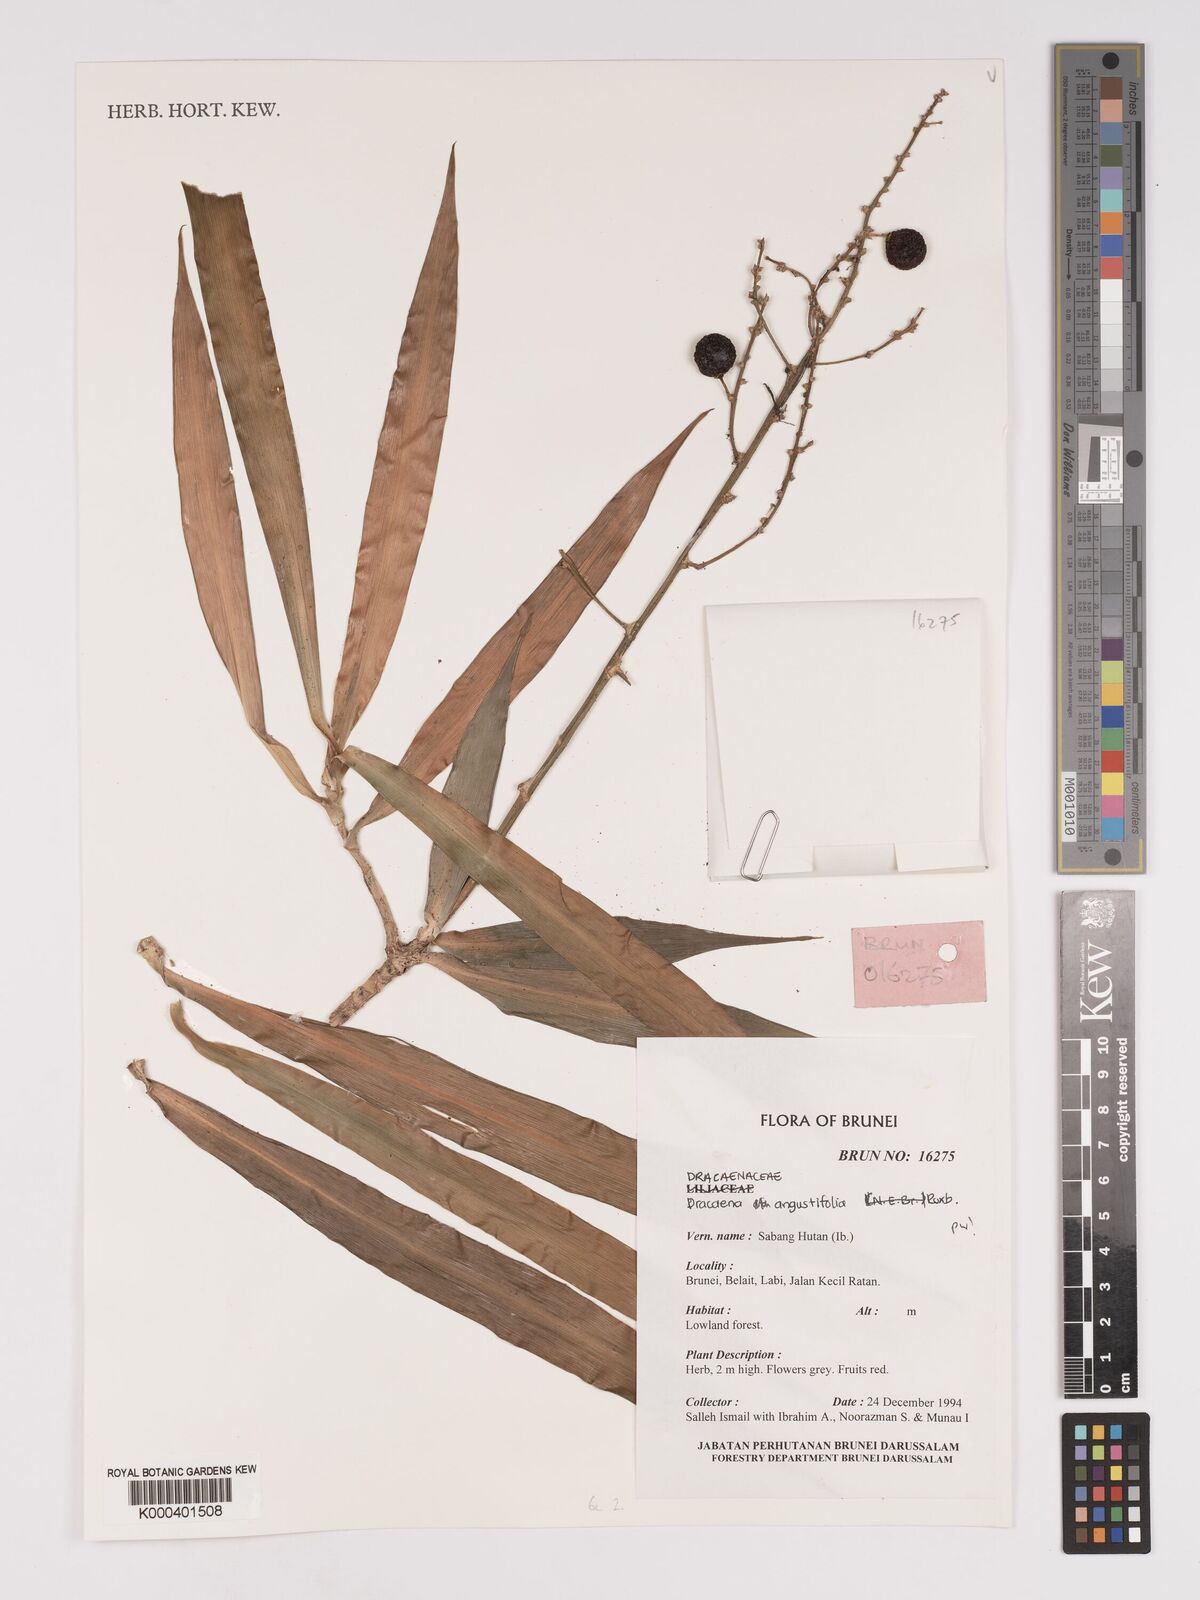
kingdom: Plantae
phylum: Tracheophyta
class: Liliopsida
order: Asparagales
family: Asparagaceae
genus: Dracaena
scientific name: Dracaena angustifolia
